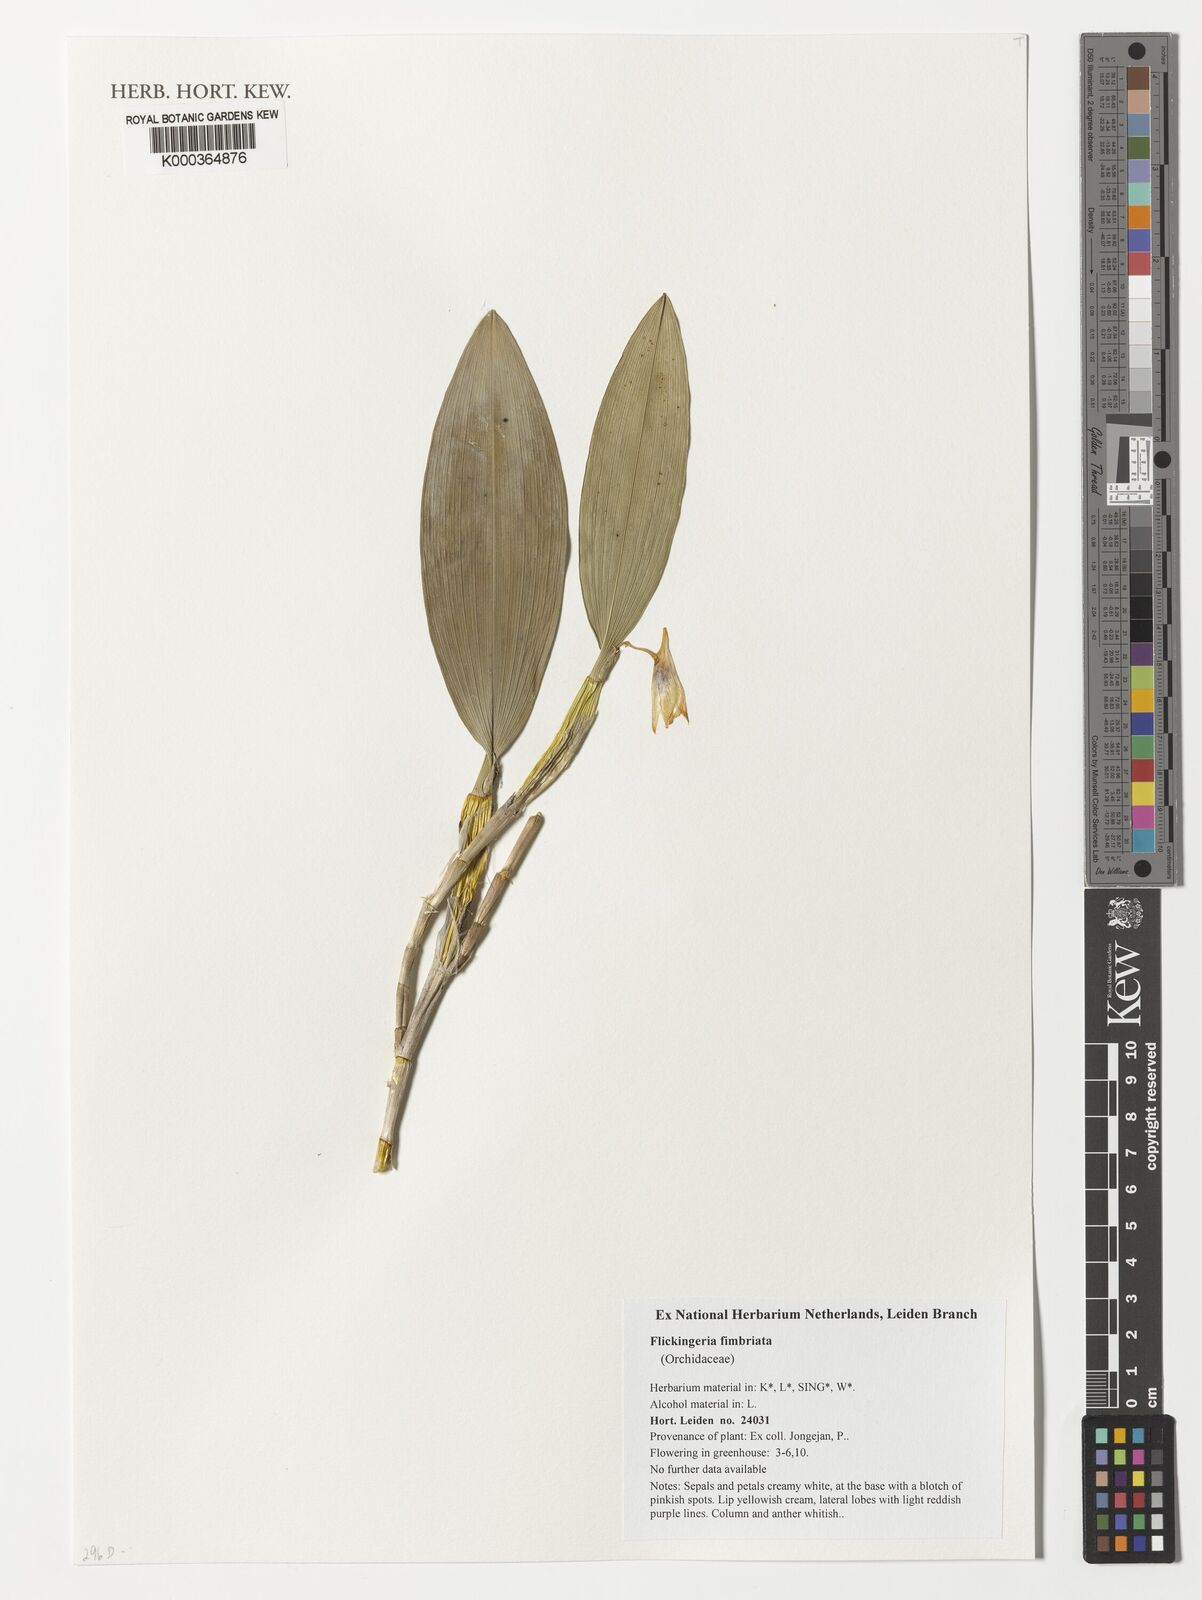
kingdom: Plantae
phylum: Tracheophyta
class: Liliopsida
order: Asparagales
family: Orchidaceae
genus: Dendrobium
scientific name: Dendrobium plicatile
